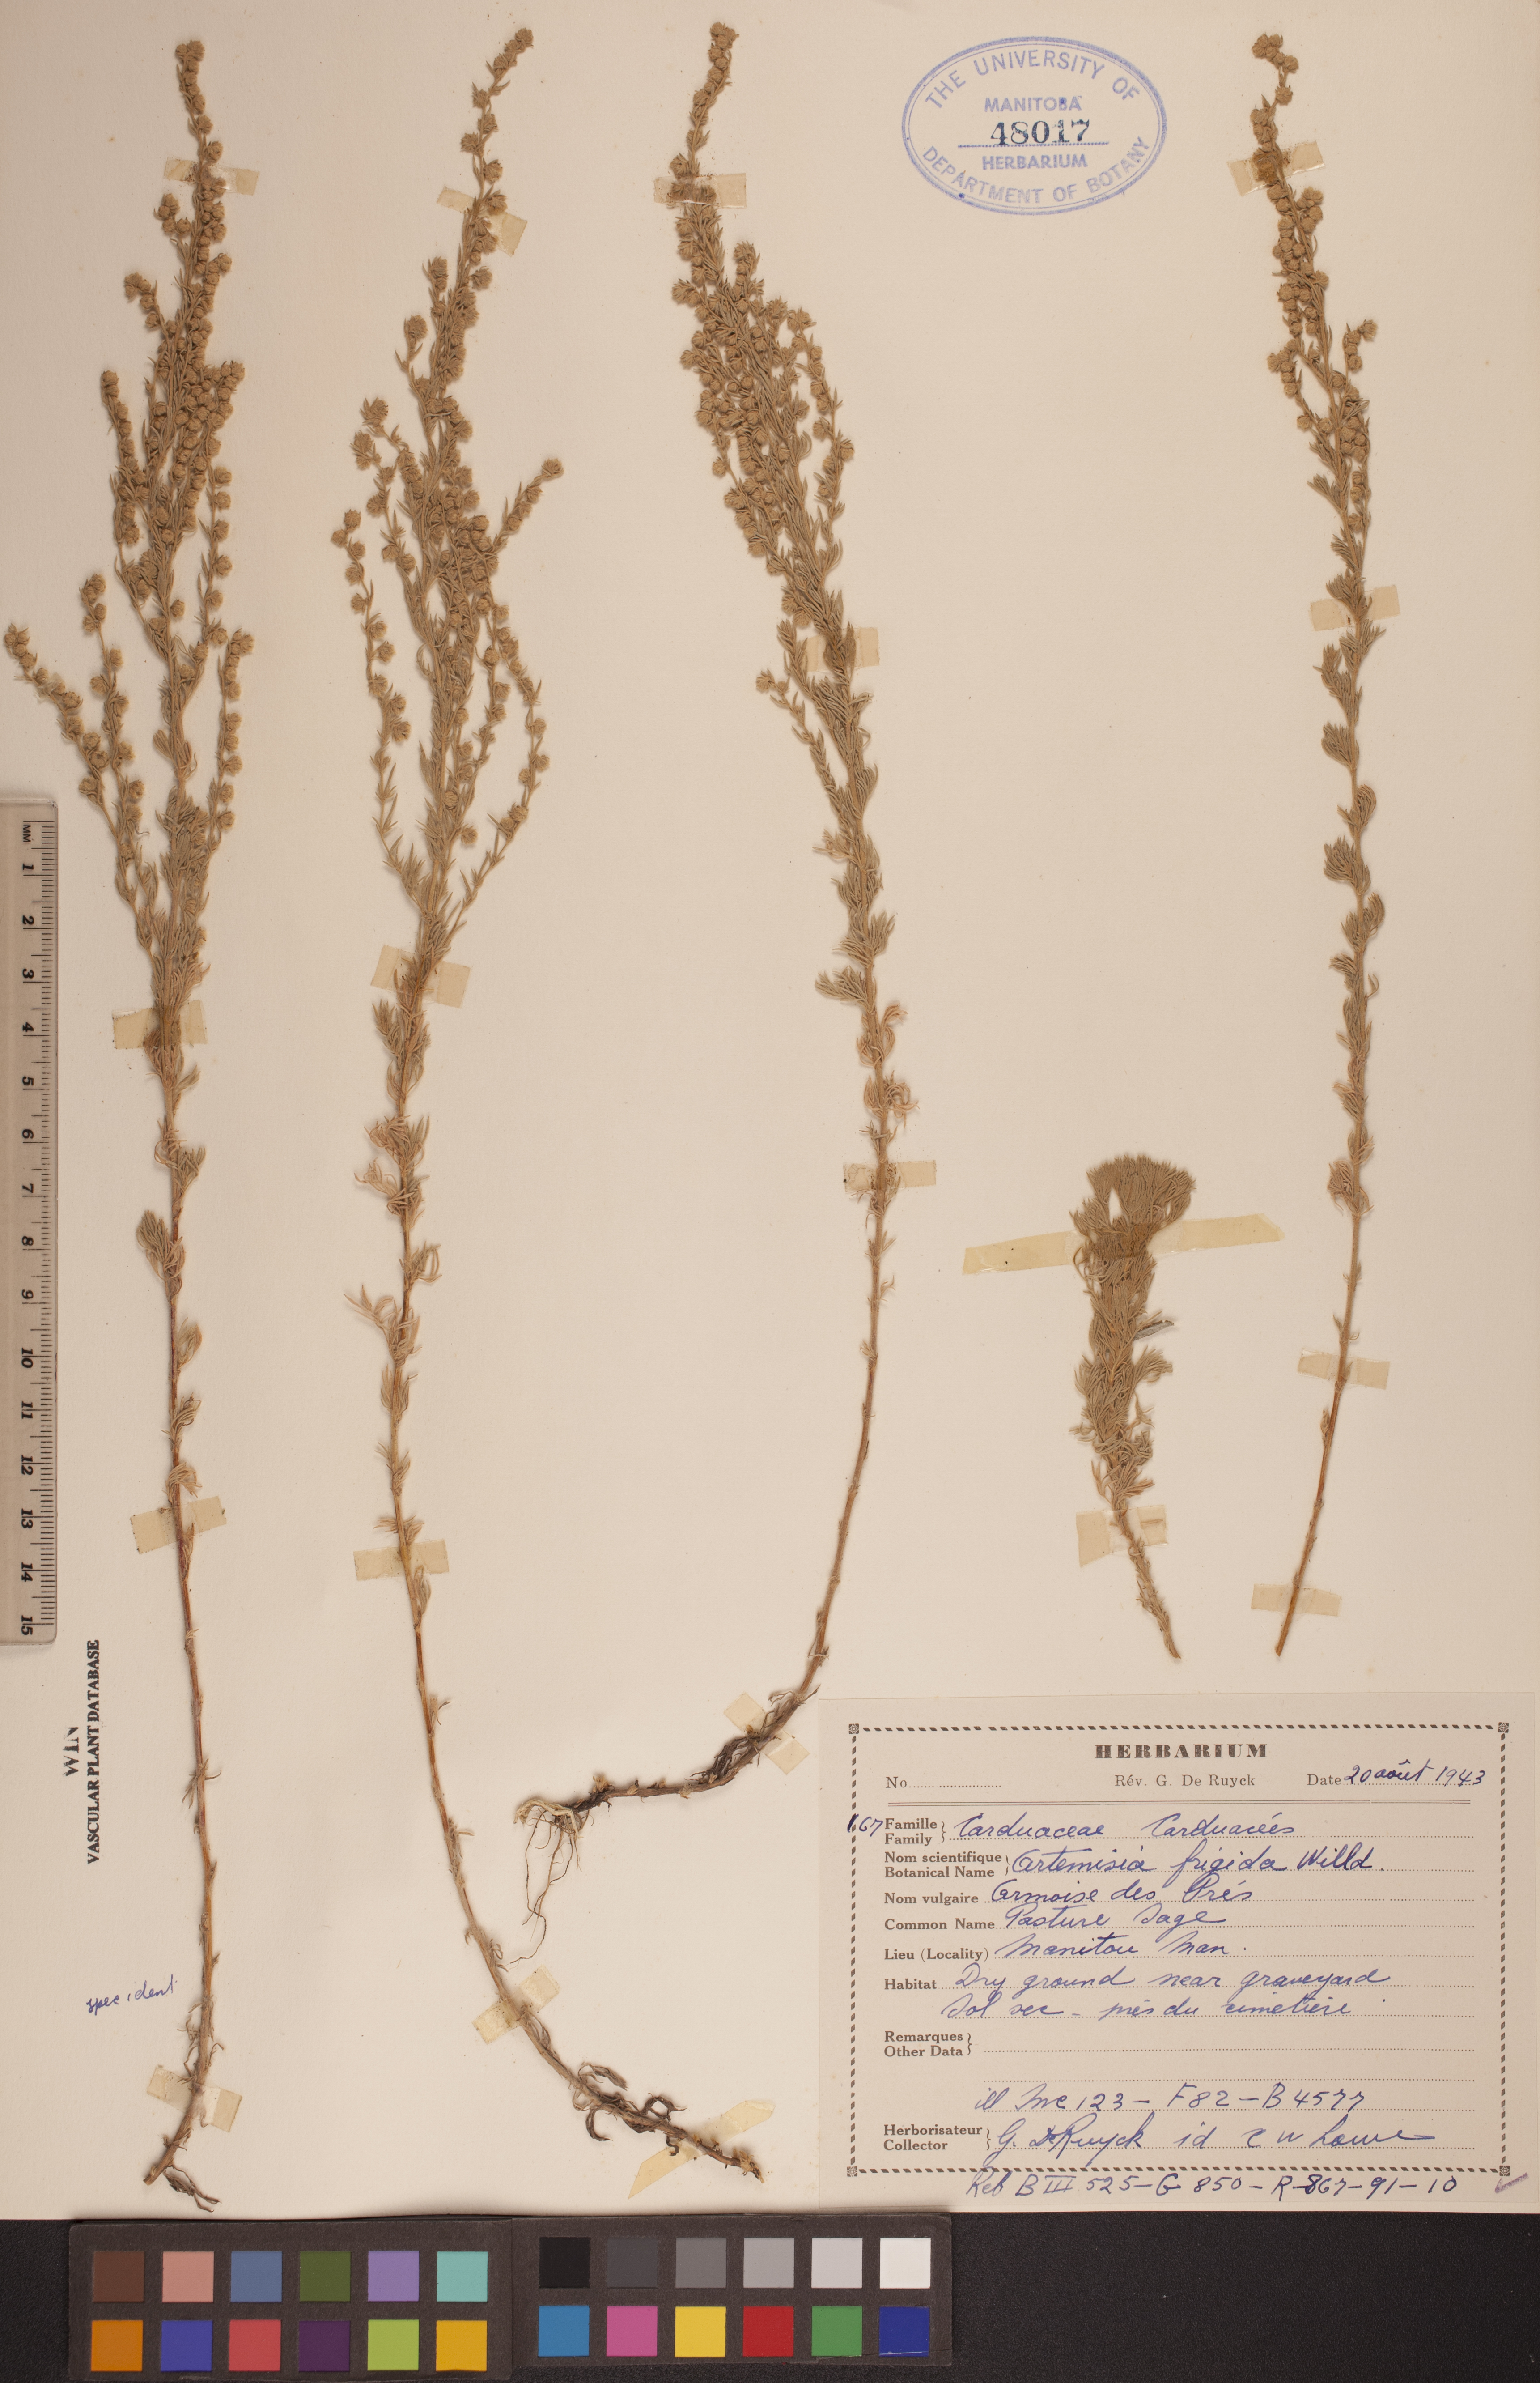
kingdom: Plantae
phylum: Tracheophyta
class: Magnoliopsida
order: Asterales
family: Asteraceae
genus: Artemisia
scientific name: Artemisia frigida
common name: Prairie sagewort
